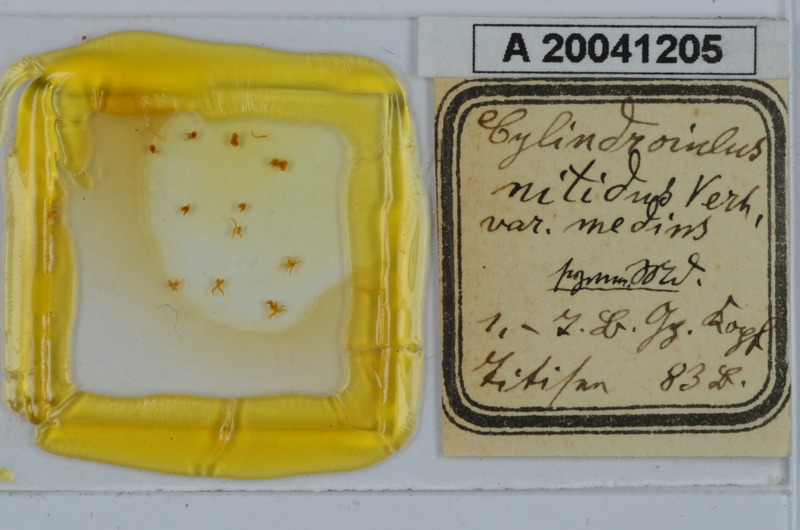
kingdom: Animalia
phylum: Arthropoda
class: Diplopoda
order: Julida
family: Julidae
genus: Allajulus
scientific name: Allajulus nitidus
